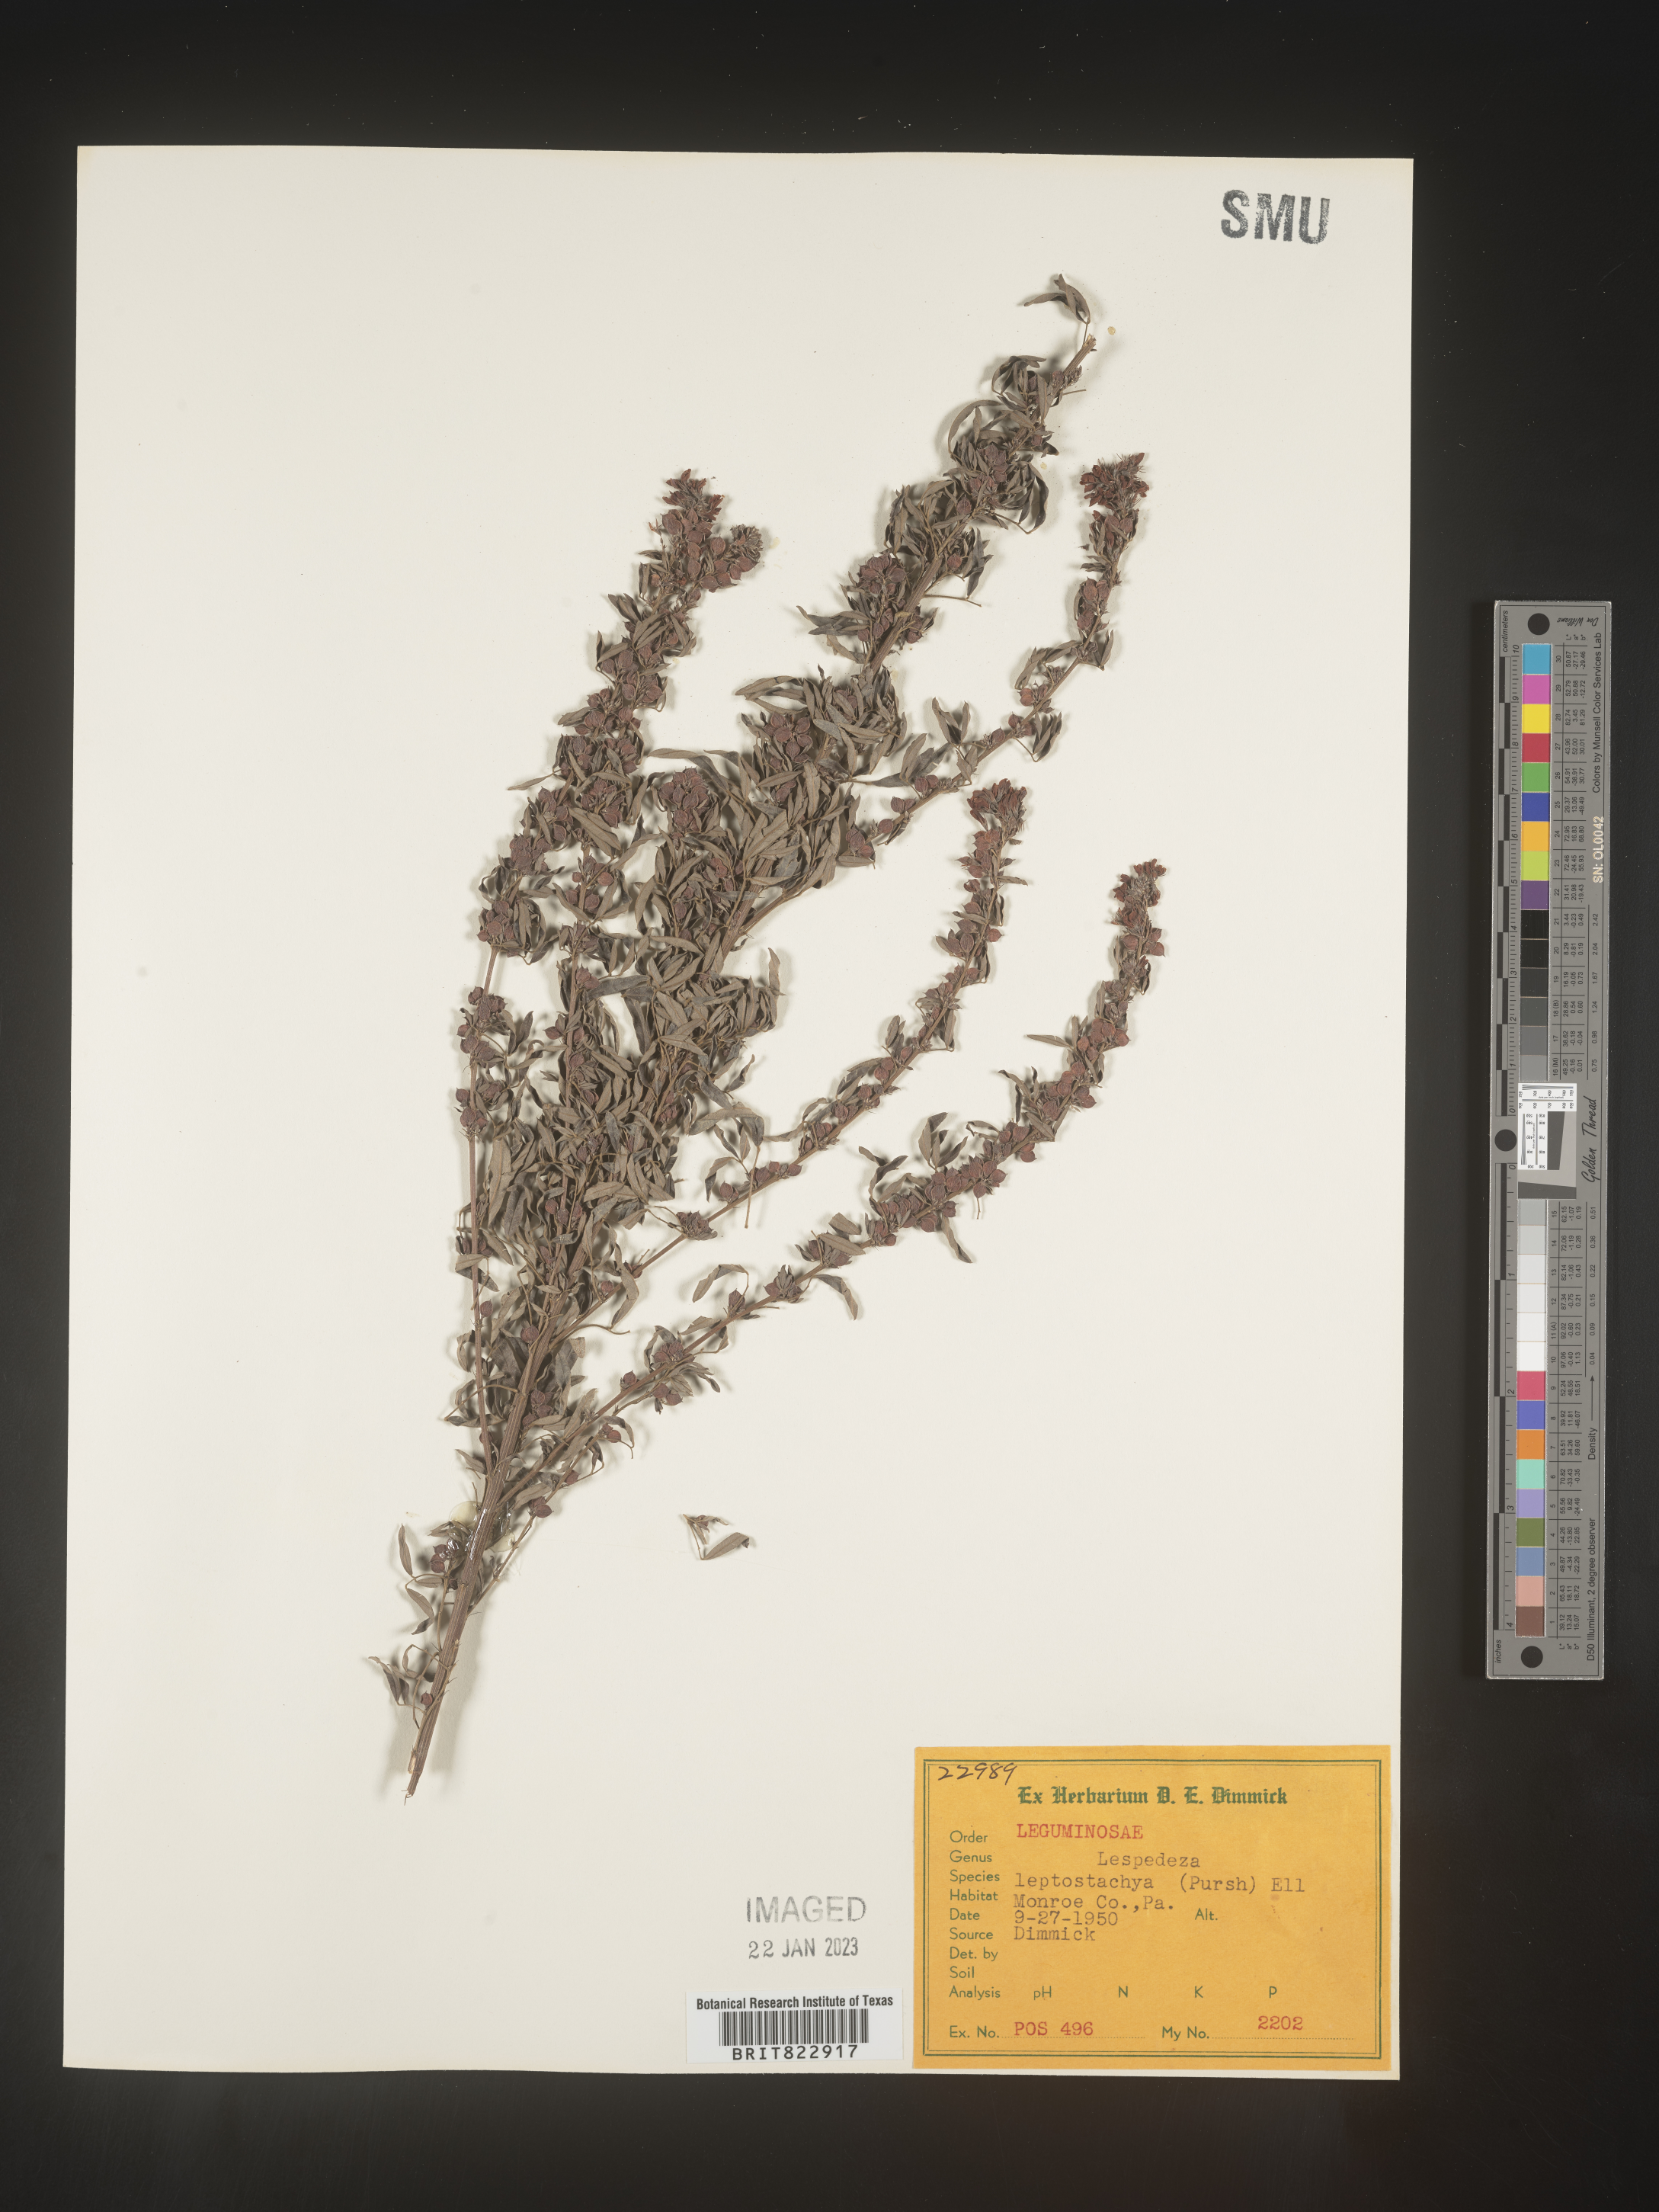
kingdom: Plantae
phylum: Tracheophyta
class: Magnoliopsida
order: Fabales
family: Fabaceae
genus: Lespedeza
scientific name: Lespedeza
